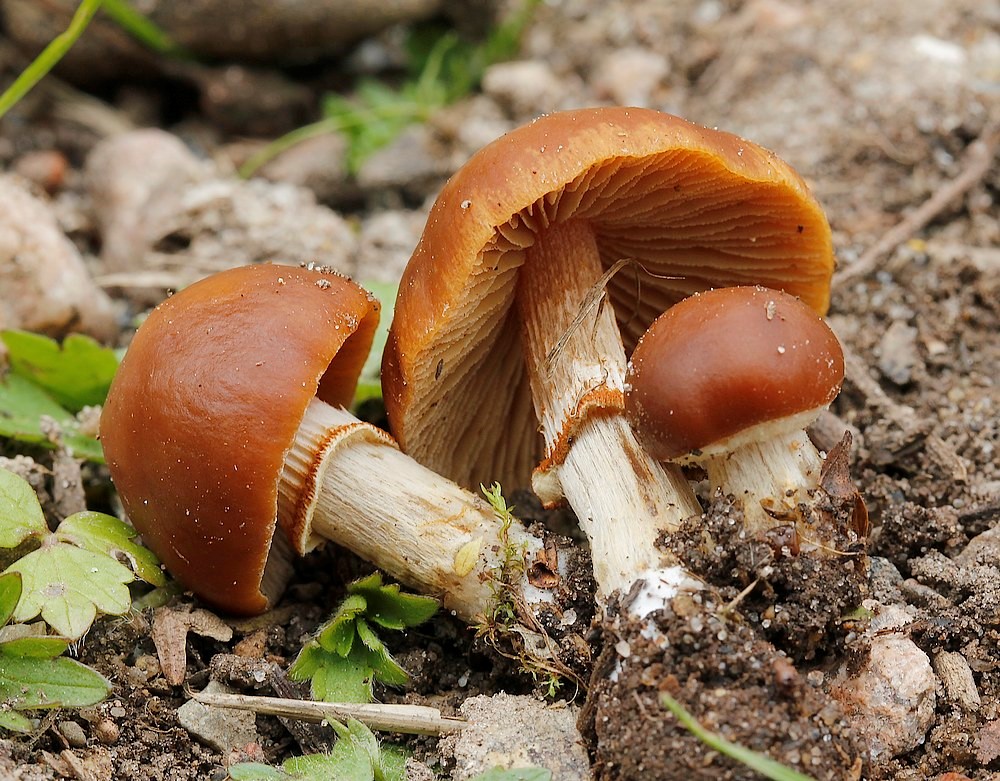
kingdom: Fungi
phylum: Basidiomycota
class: Agaricomycetes
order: Agaricales
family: Bolbitiaceae
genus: Conocybe
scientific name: Conocybe aporos
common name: tidlig dansehat
